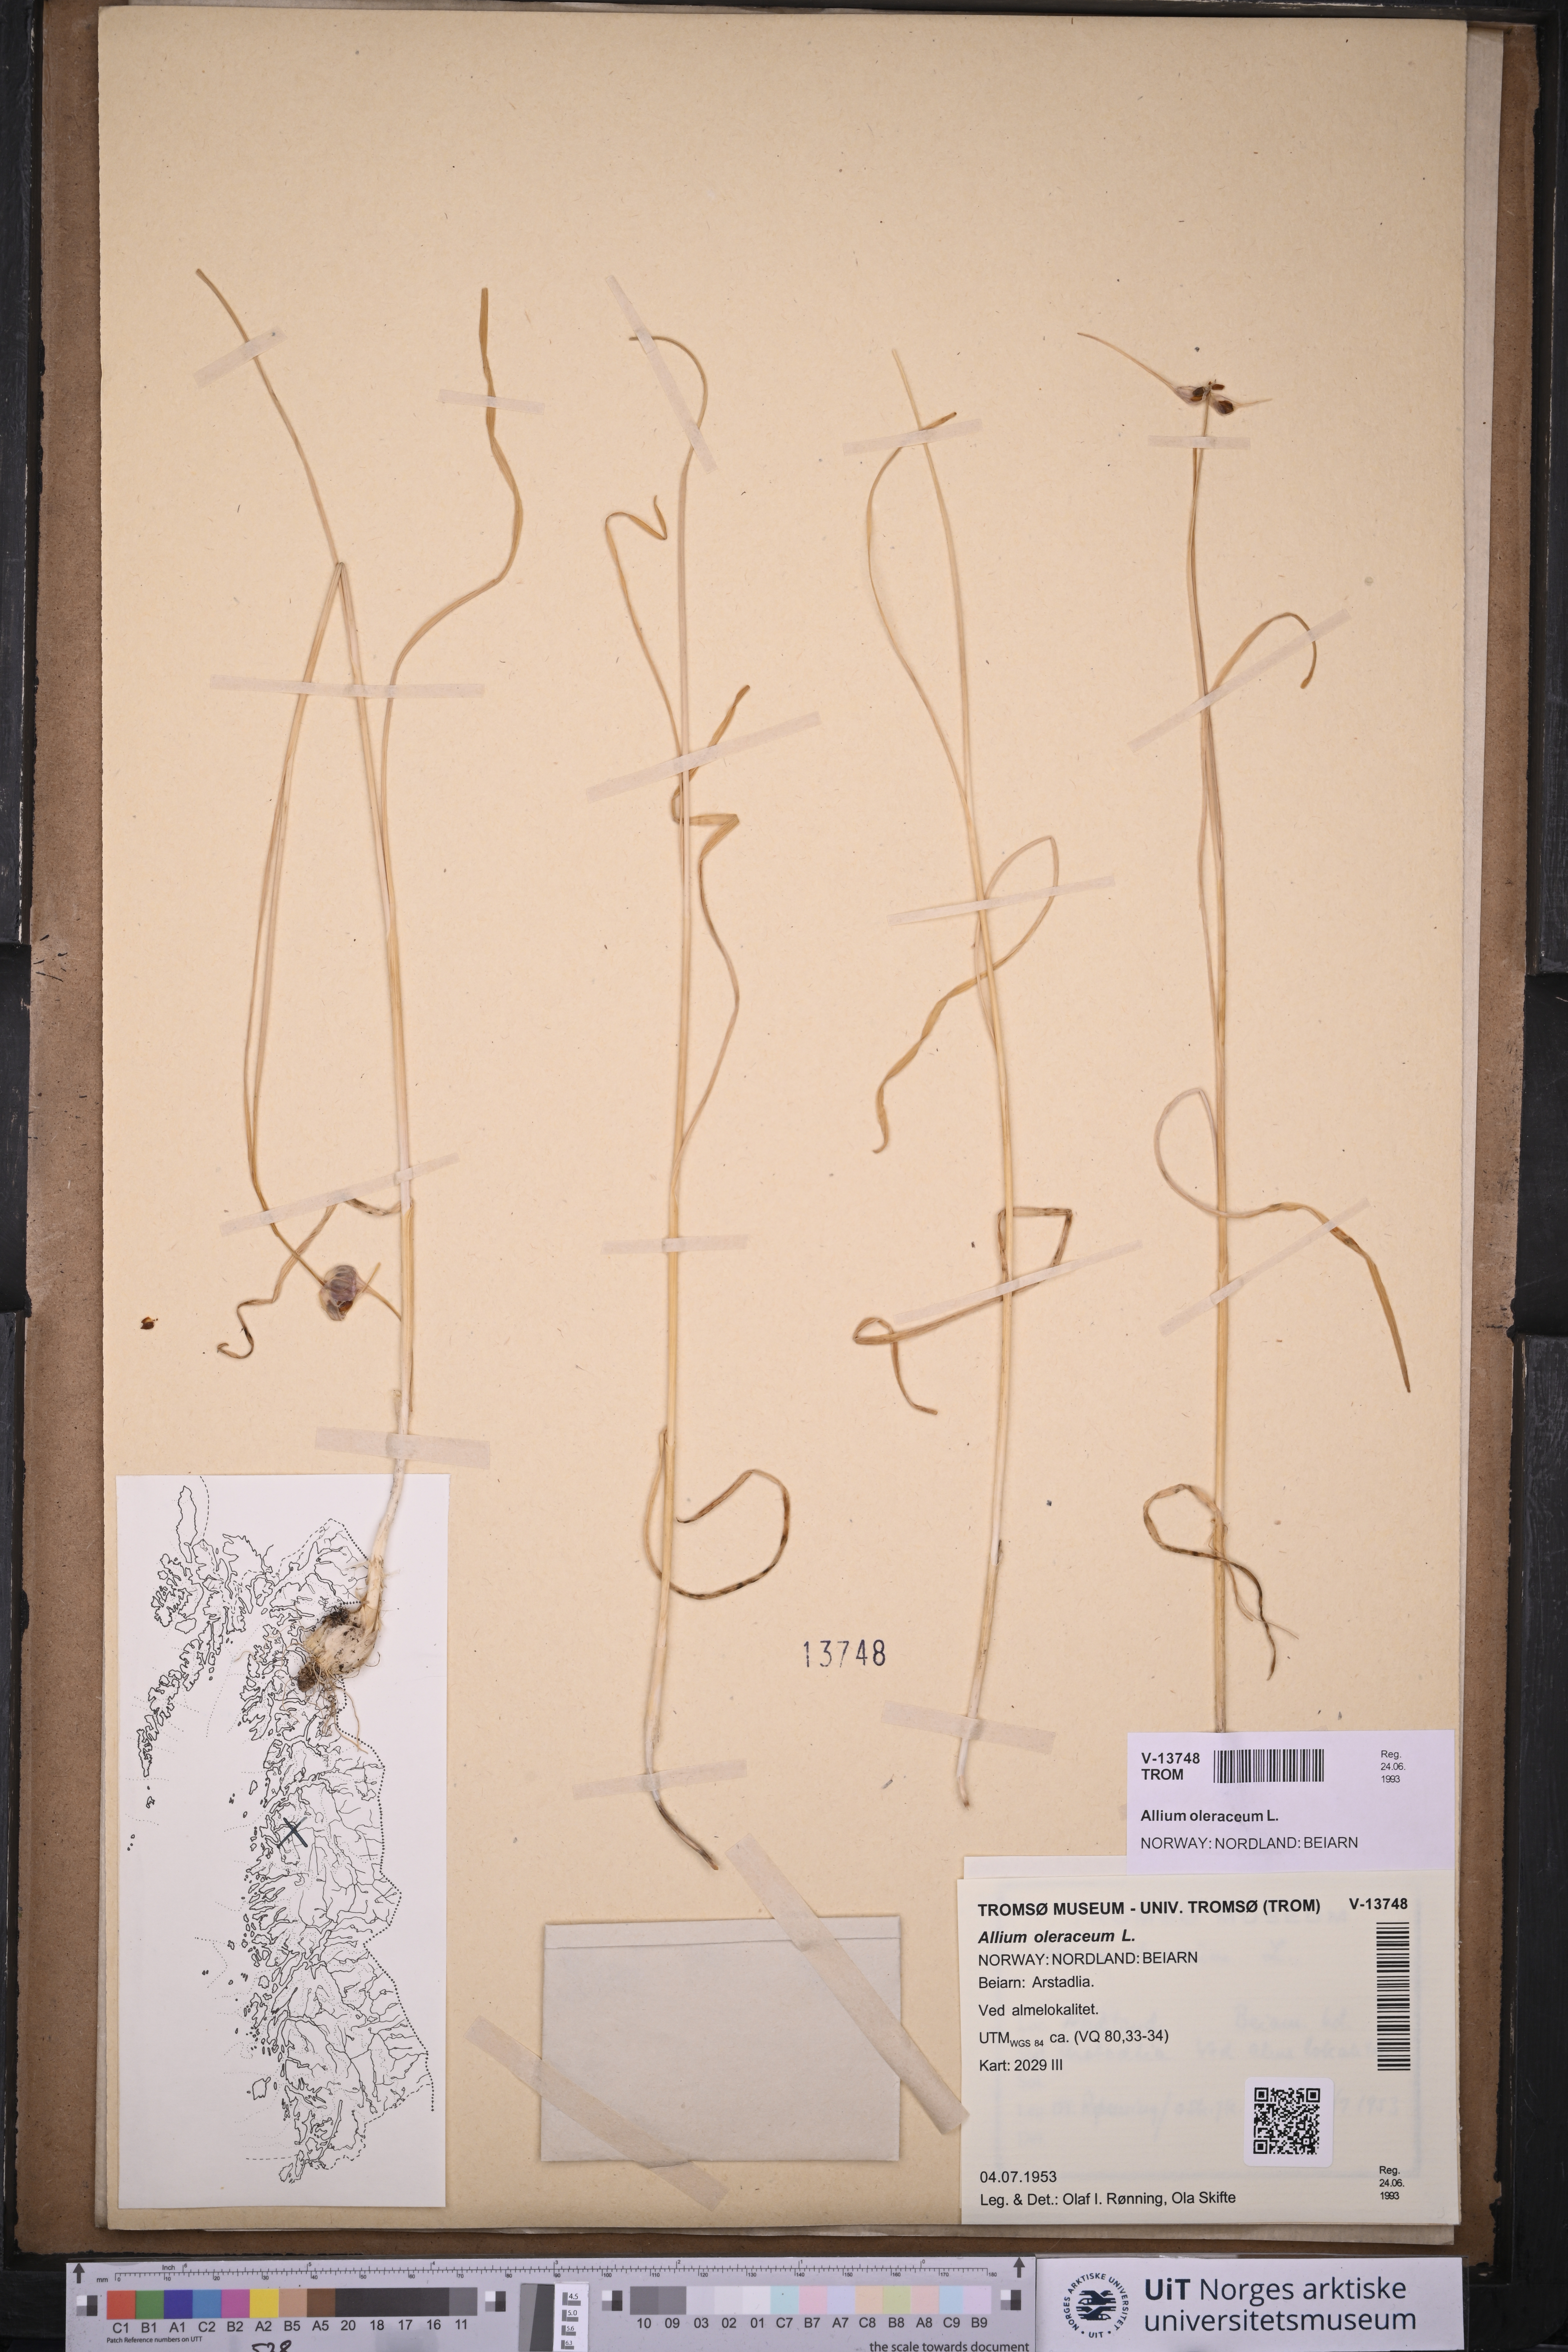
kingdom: Plantae
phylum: Tracheophyta
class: Liliopsida
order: Asparagales
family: Amaryllidaceae
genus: Allium
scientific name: Allium oleraceum
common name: Field garlic
